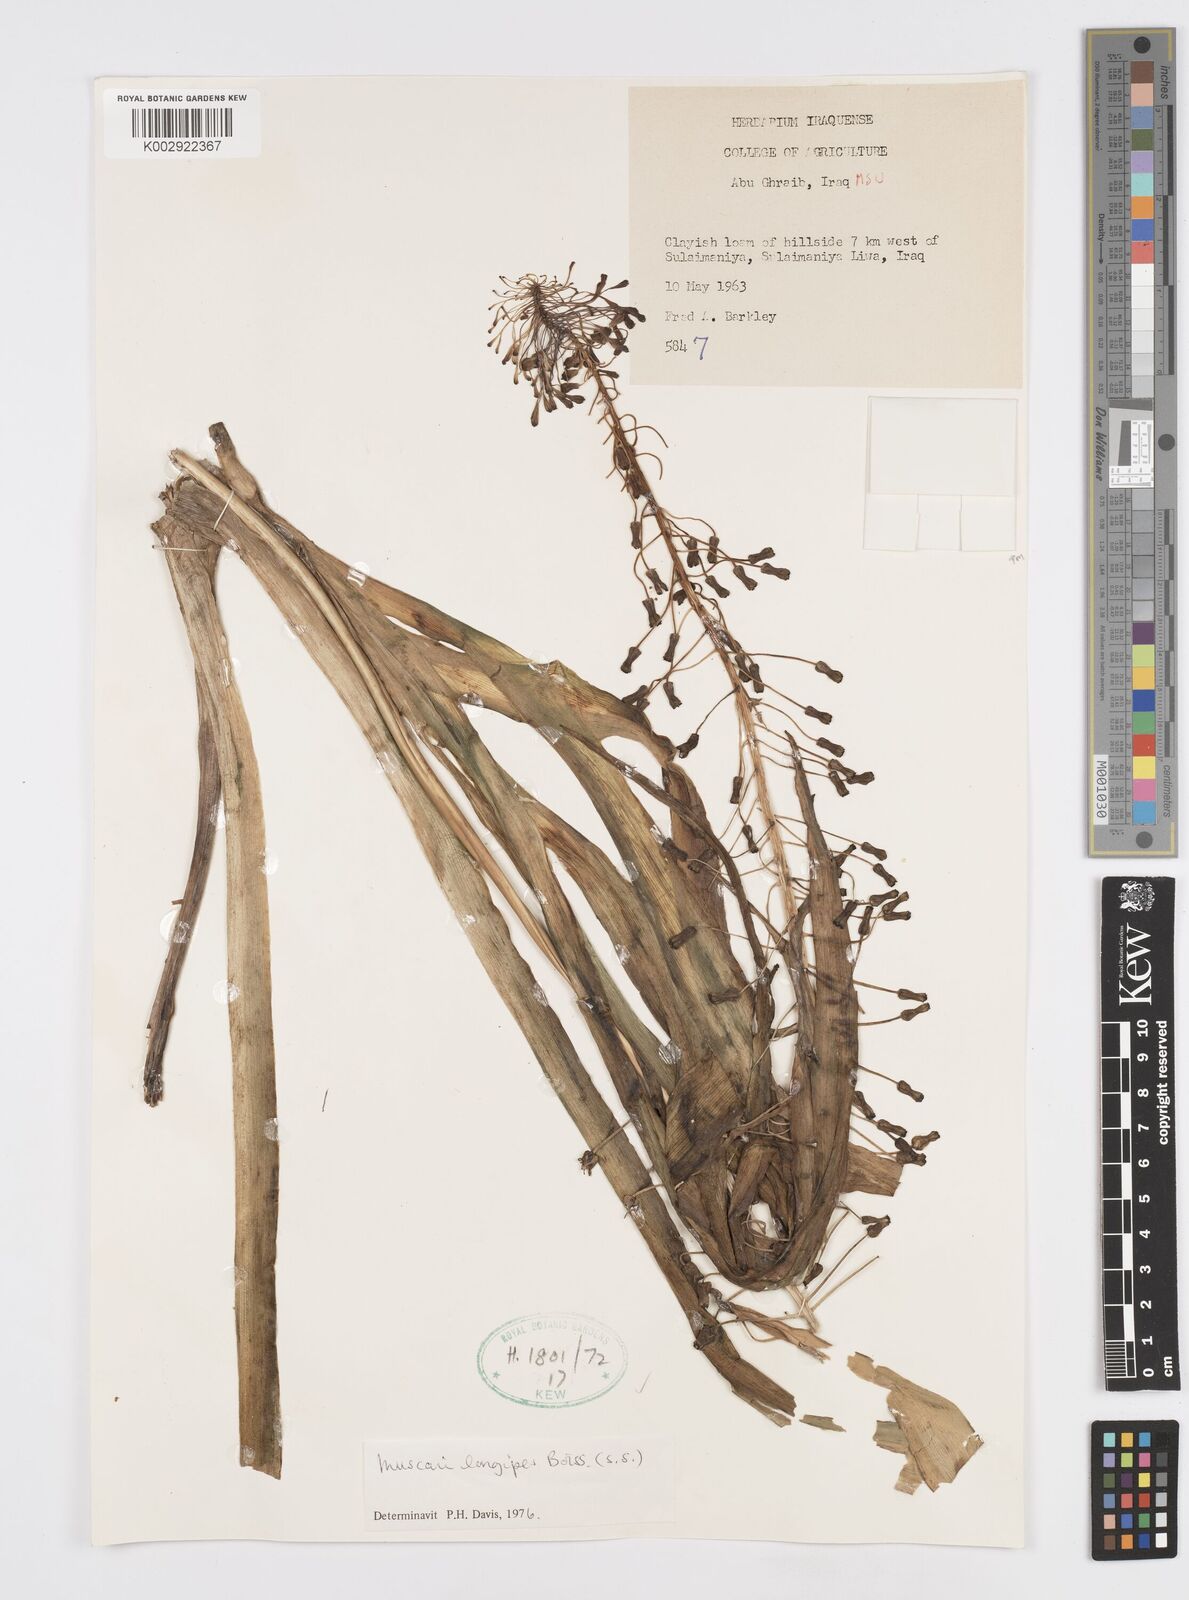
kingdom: Plantae
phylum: Tracheophyta
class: Liliopsida
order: Asparagales
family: Asparagaceae
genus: Muscari
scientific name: Muscari longipes
